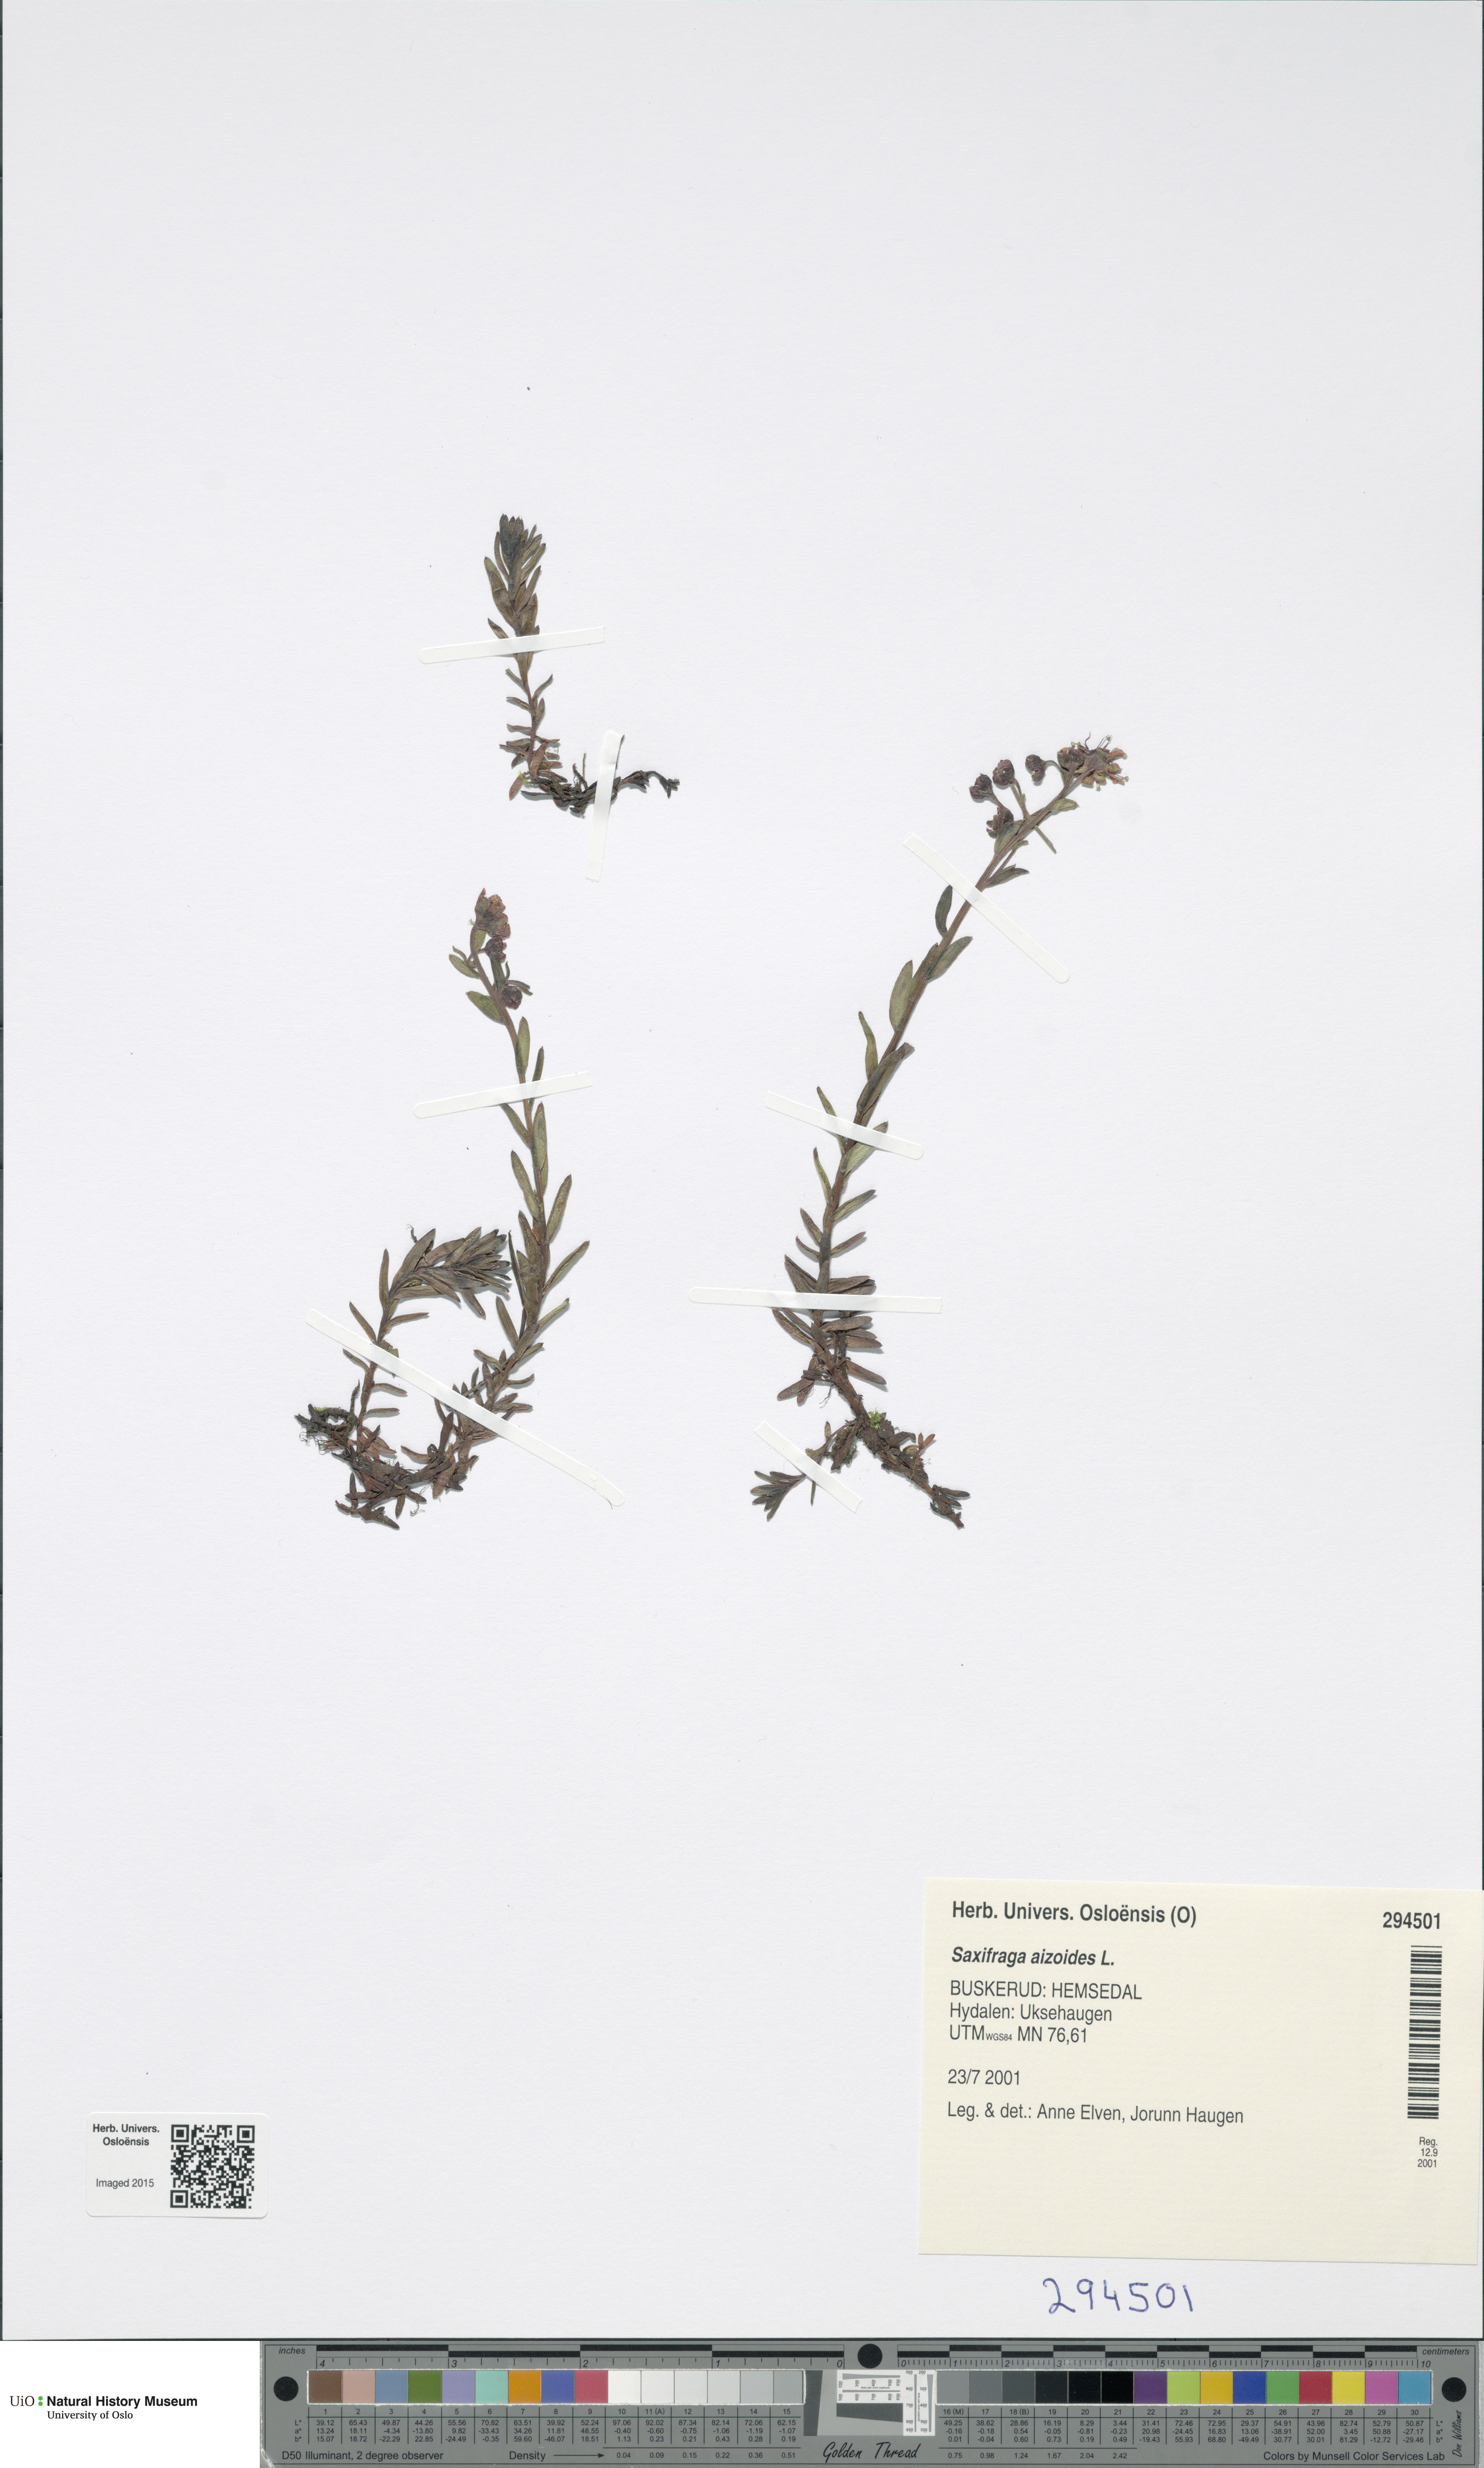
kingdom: Plantae
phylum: Tracheophyta
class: Magnoliopsida
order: Saxifragales
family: Saxifragaceae
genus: Saxifraga
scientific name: Saxifraga aizoides
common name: Yellow mountain saxifrage
